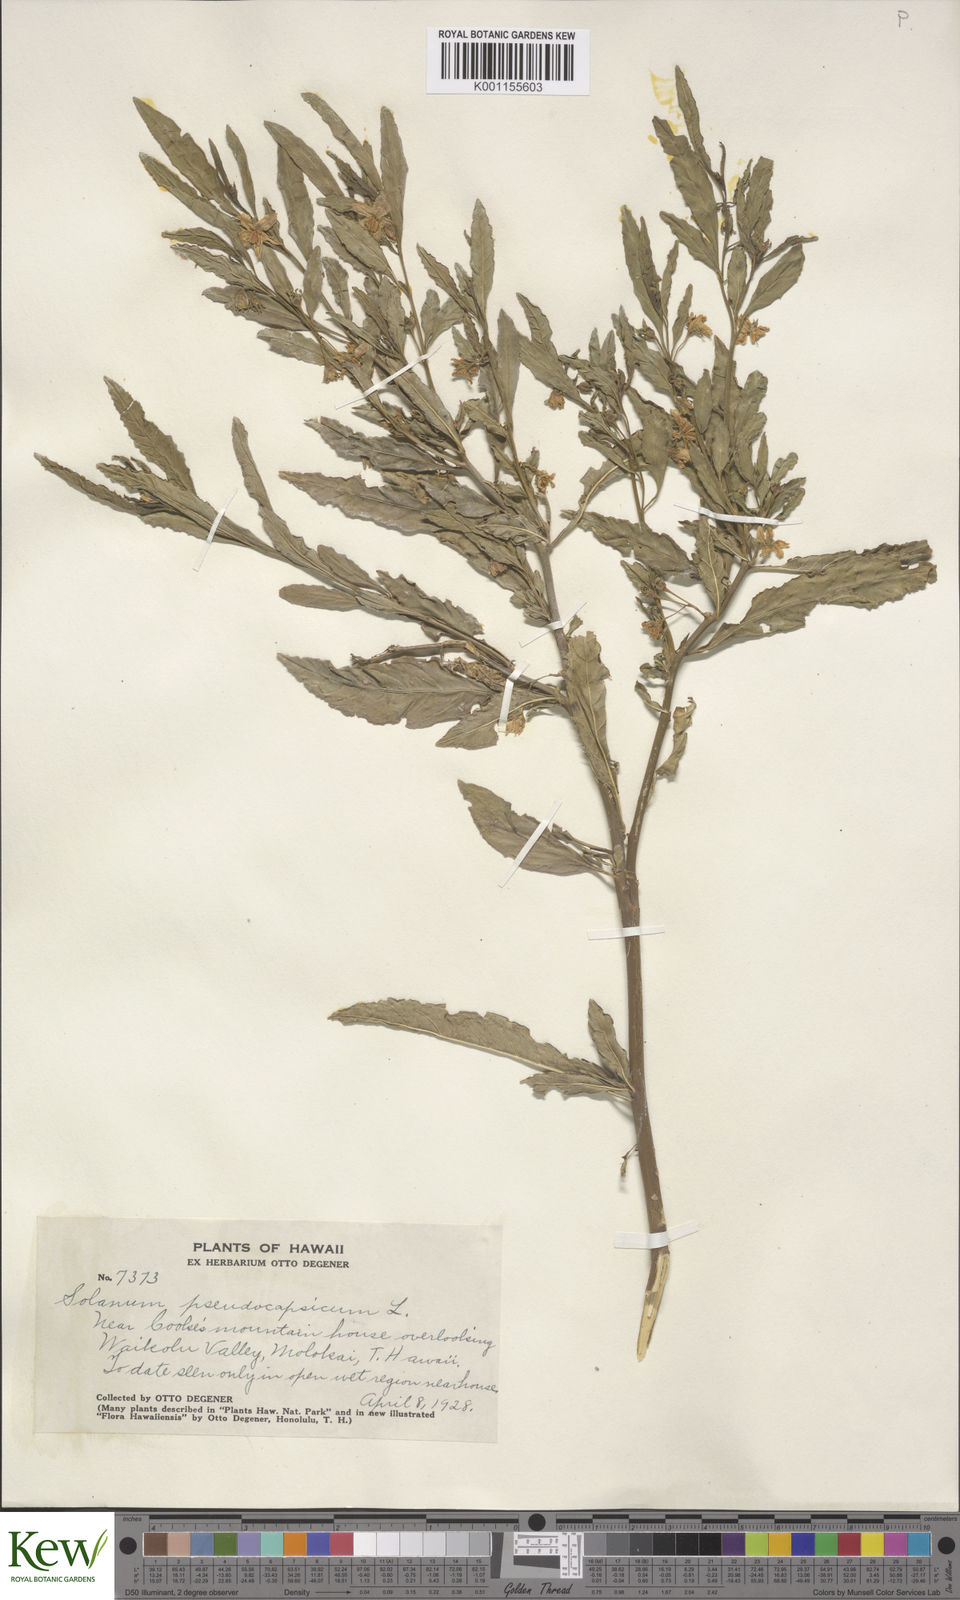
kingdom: Plantae
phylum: Tracheophyta
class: Magnoliopsida
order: Solanales
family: Solanaceae
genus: Solanum
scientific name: Solanum pseudocapsicum
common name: Jerusalem cherry
